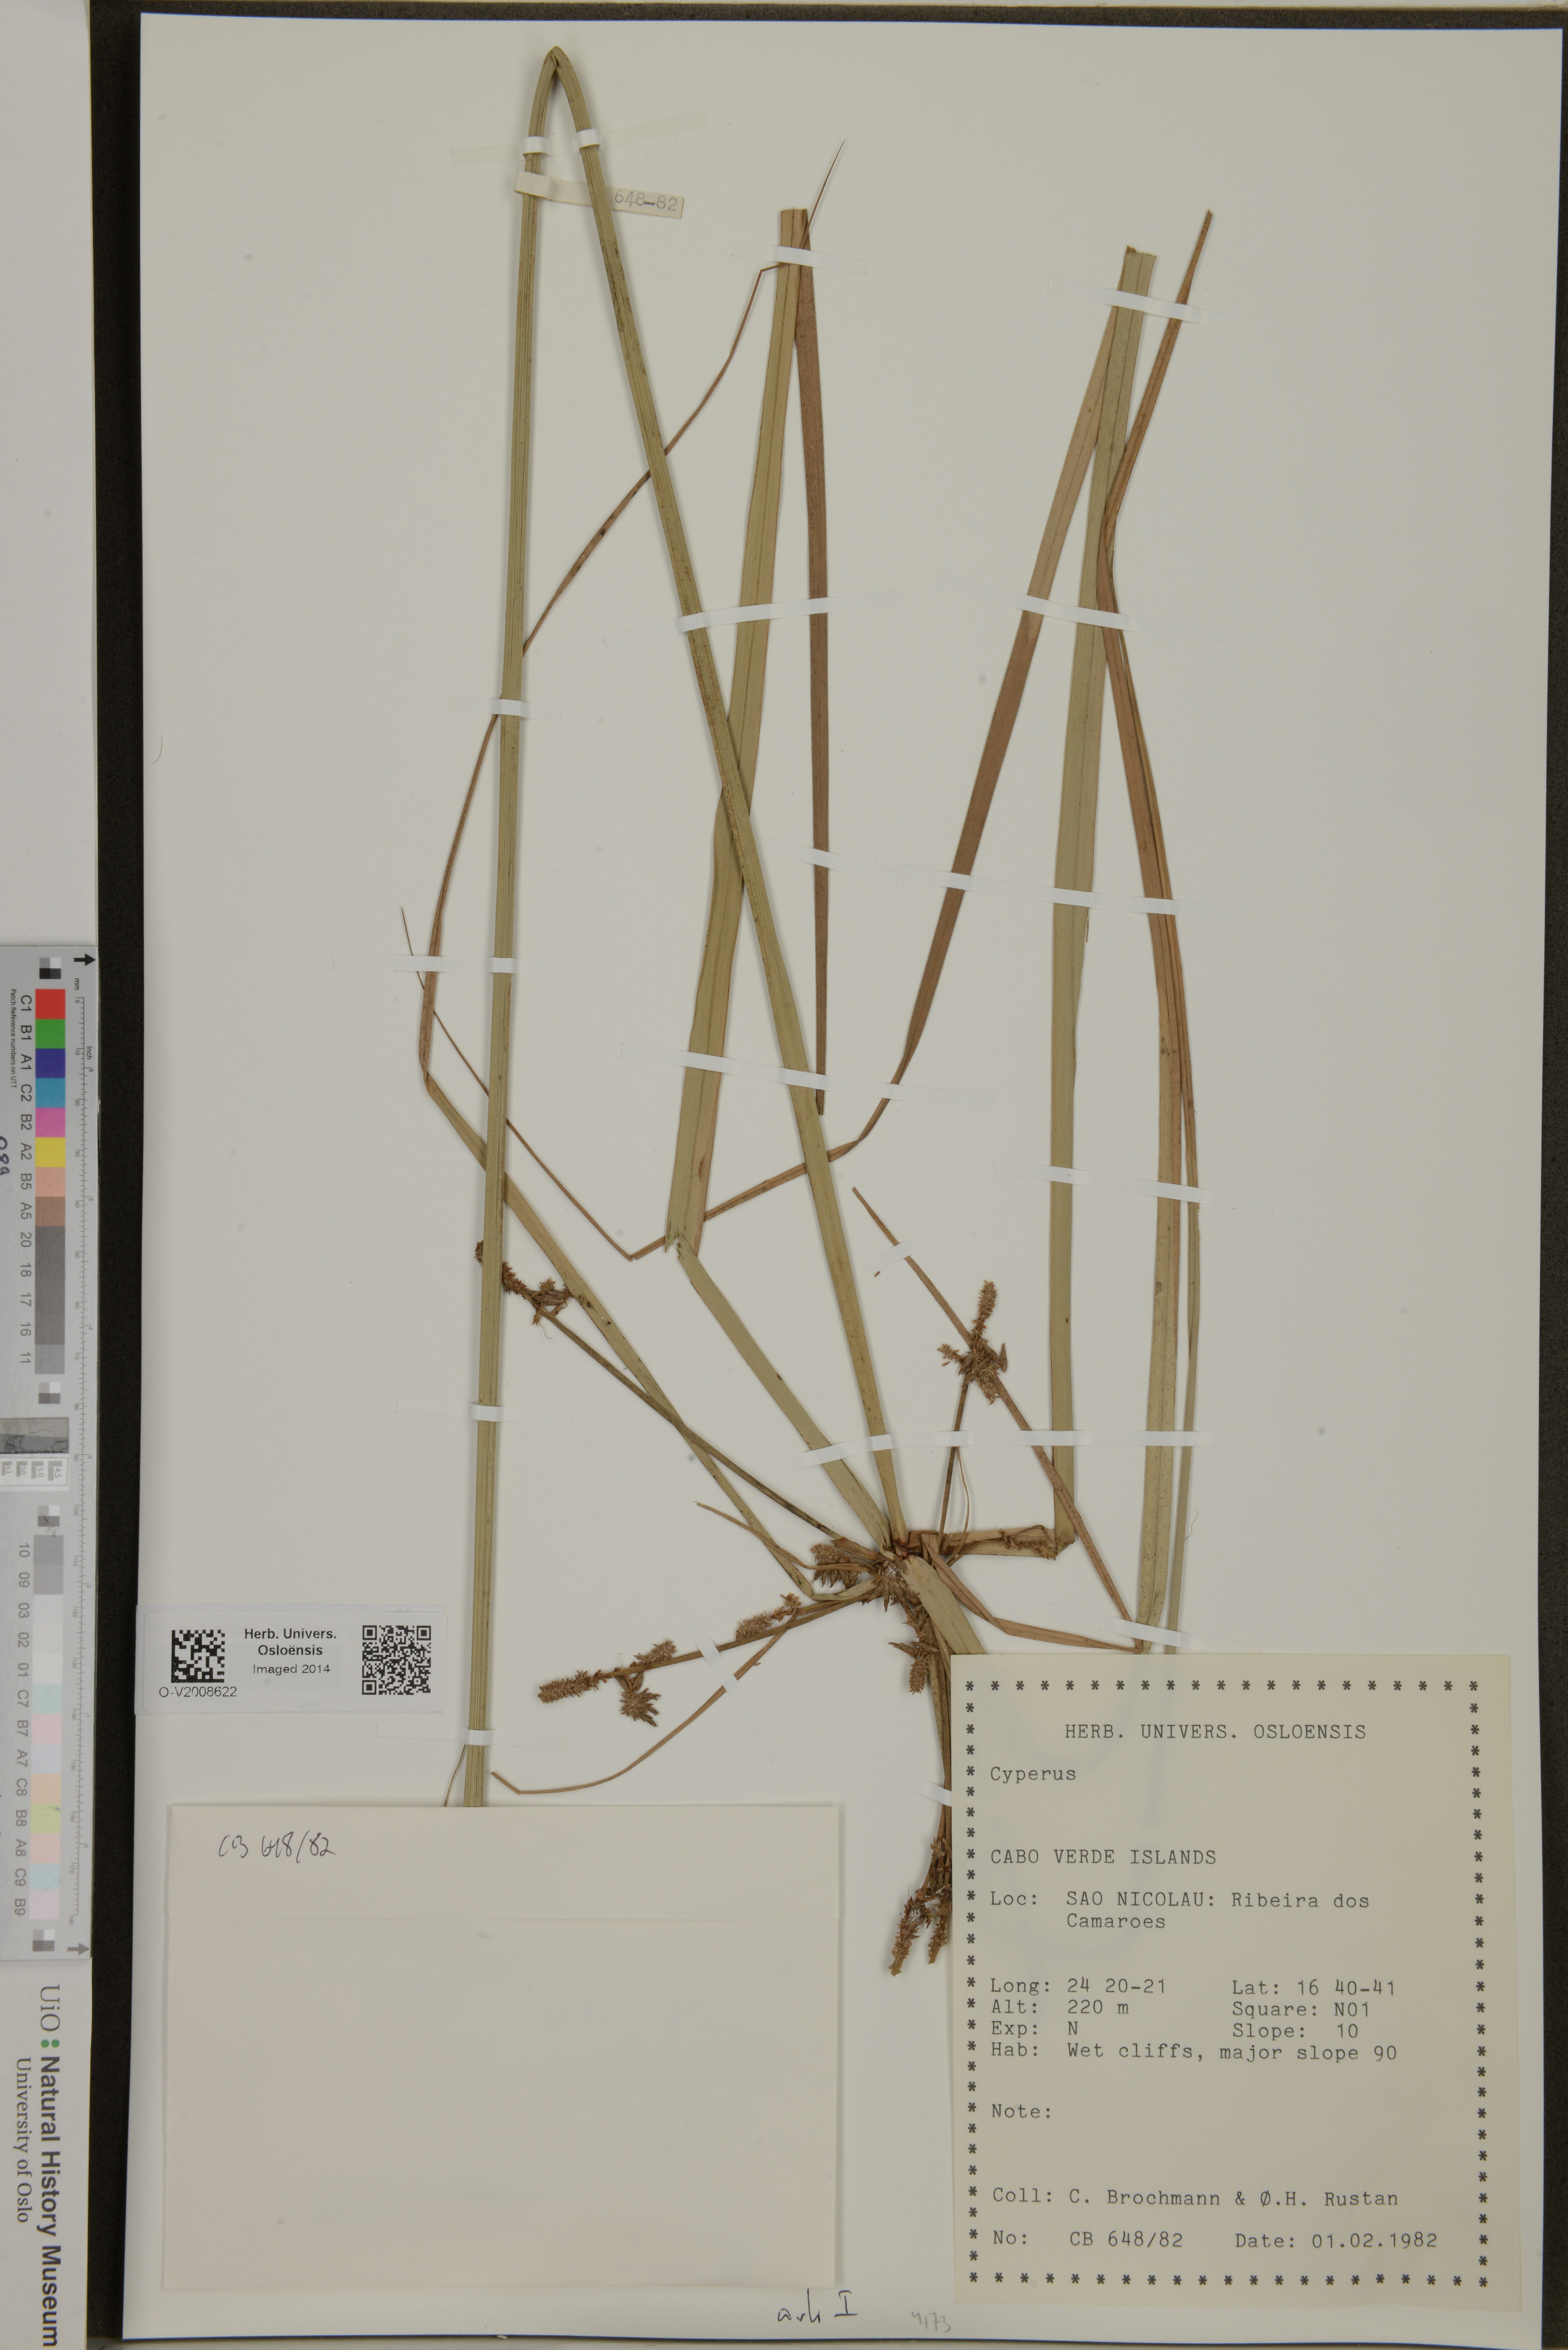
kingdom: Plantae
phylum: Tracheophyta
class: Liliopsida
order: Poales
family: Cyperaceae
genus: Cyperus
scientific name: Cyperus
